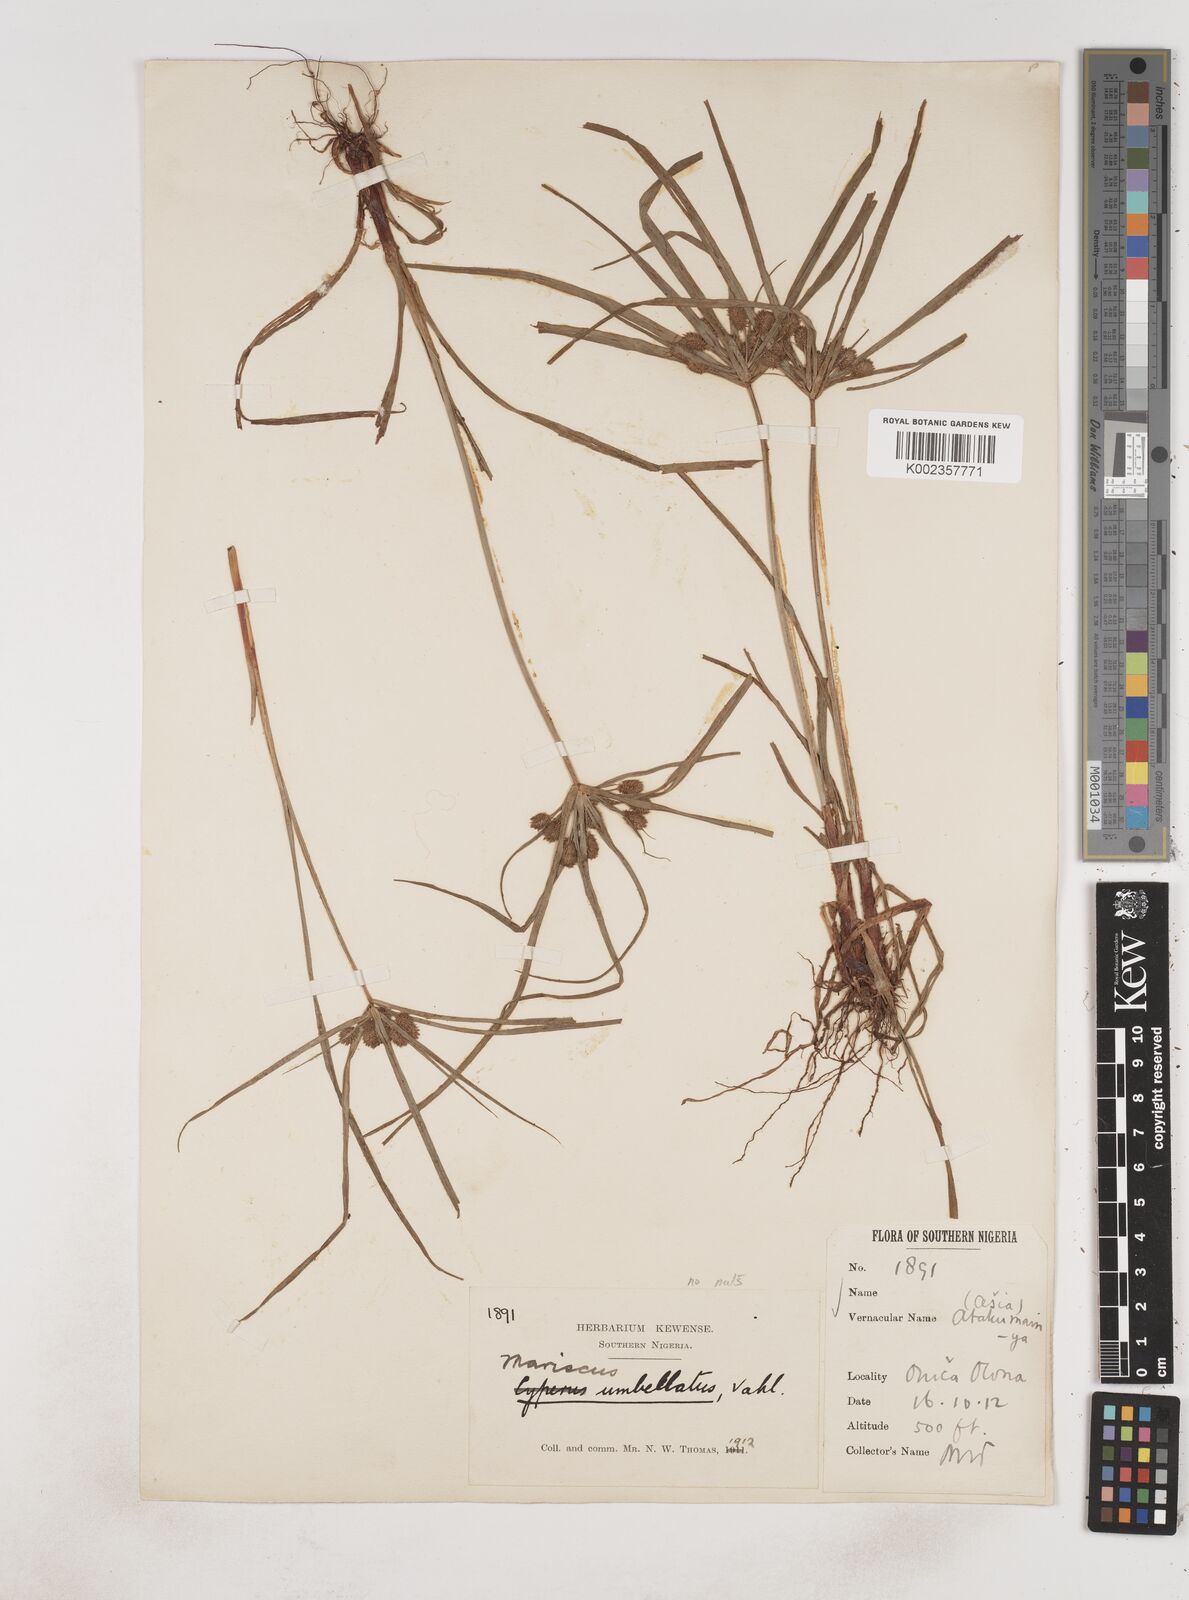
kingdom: Plantae
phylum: Tracheophyta
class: Liliopsida
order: Poales
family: Cyperaceae
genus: Cyperus
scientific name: Cyperus sublimis
